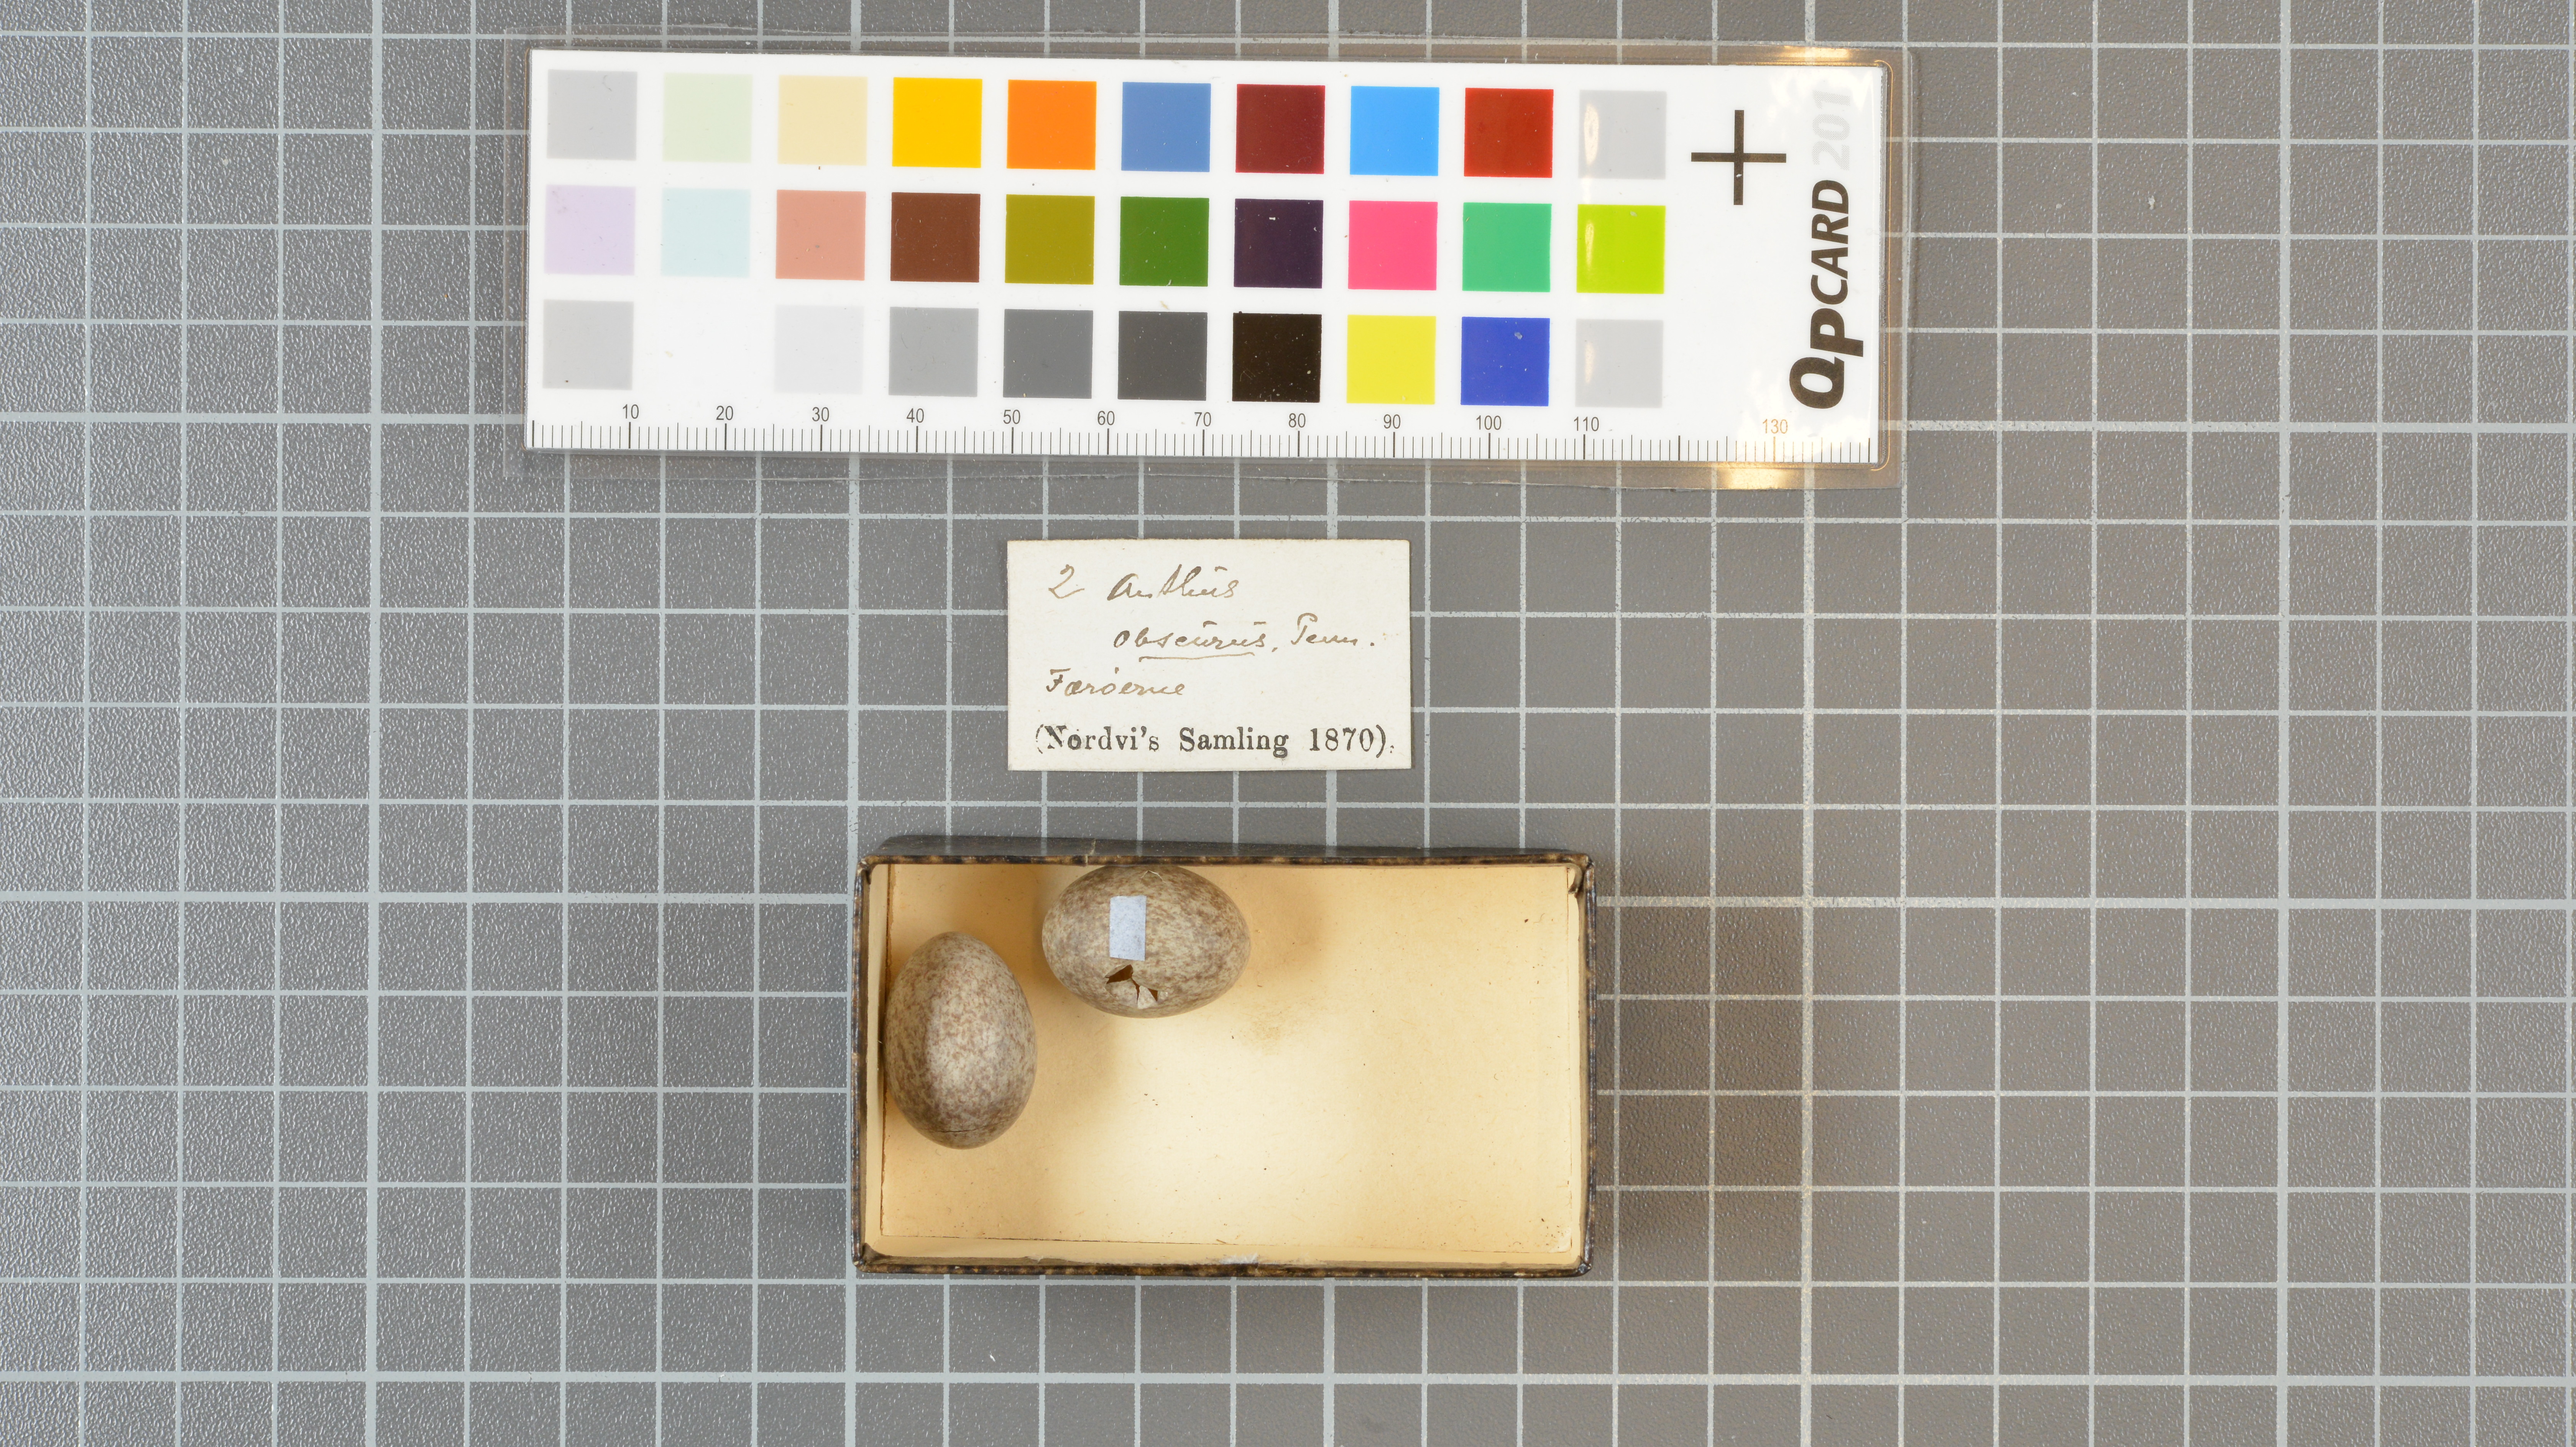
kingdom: Animalia
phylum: Chordata
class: Aves
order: Passeriformes
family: Motacillidae
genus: Anthus
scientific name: Anthus petrosus
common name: Eurasian rock pipit
